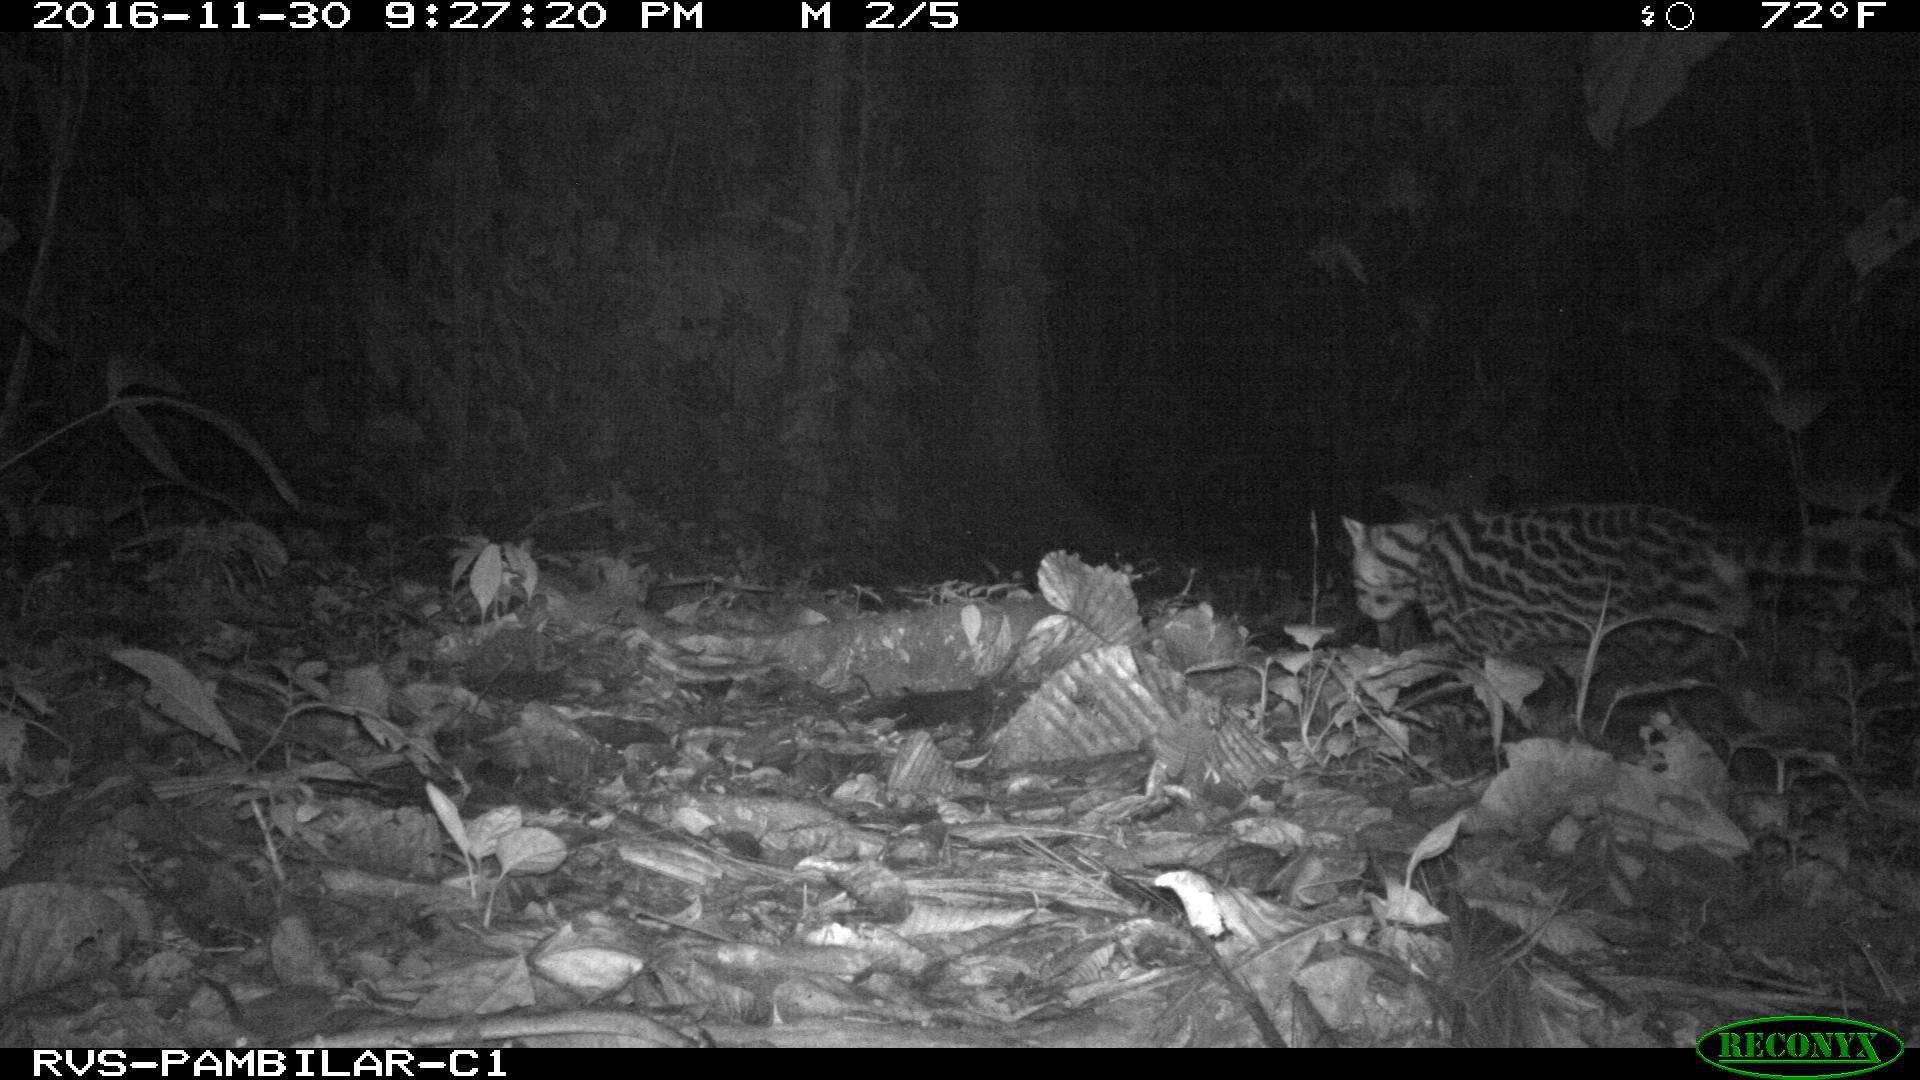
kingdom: Animalia
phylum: Chordata
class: Mammalia
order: Carnivora
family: Felidae
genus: Leopardus
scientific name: Leopardus pardalis
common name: Ocelot
